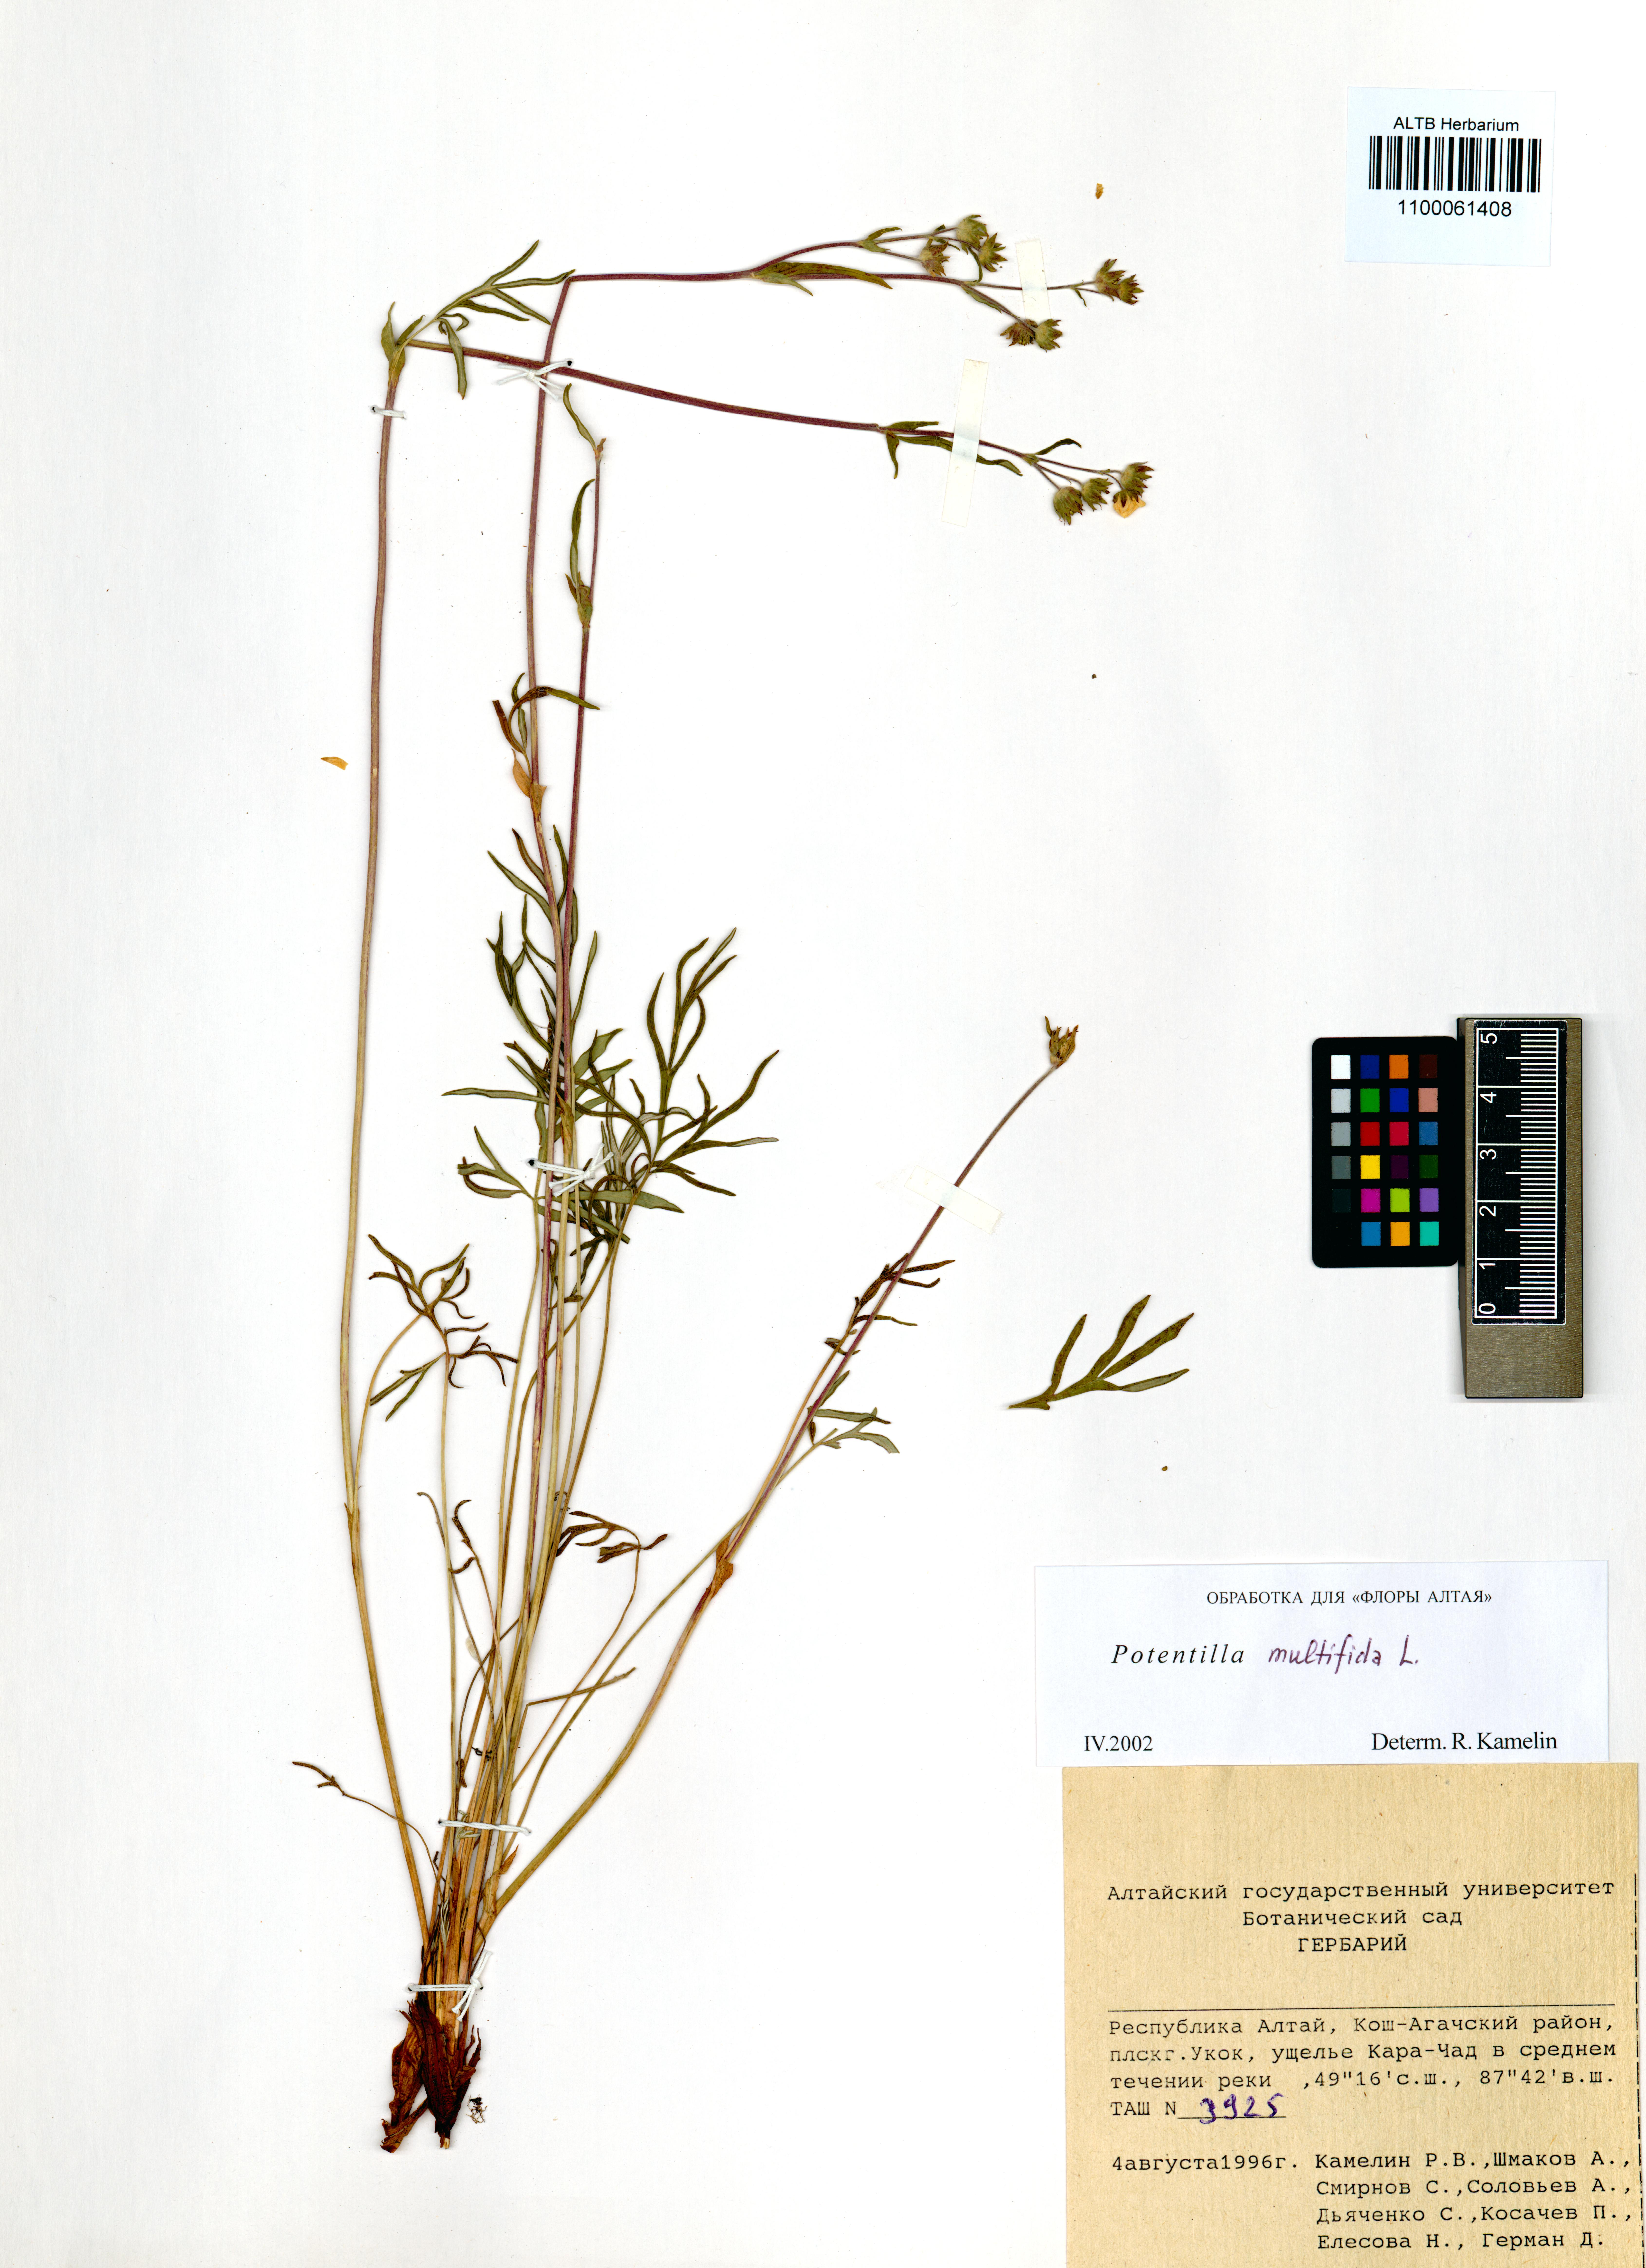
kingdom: Plantae
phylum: Tracheophyta
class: Magnoliopsida
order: Rosales
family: Rosaceae
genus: Potentilla
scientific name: Potentilla multifida
